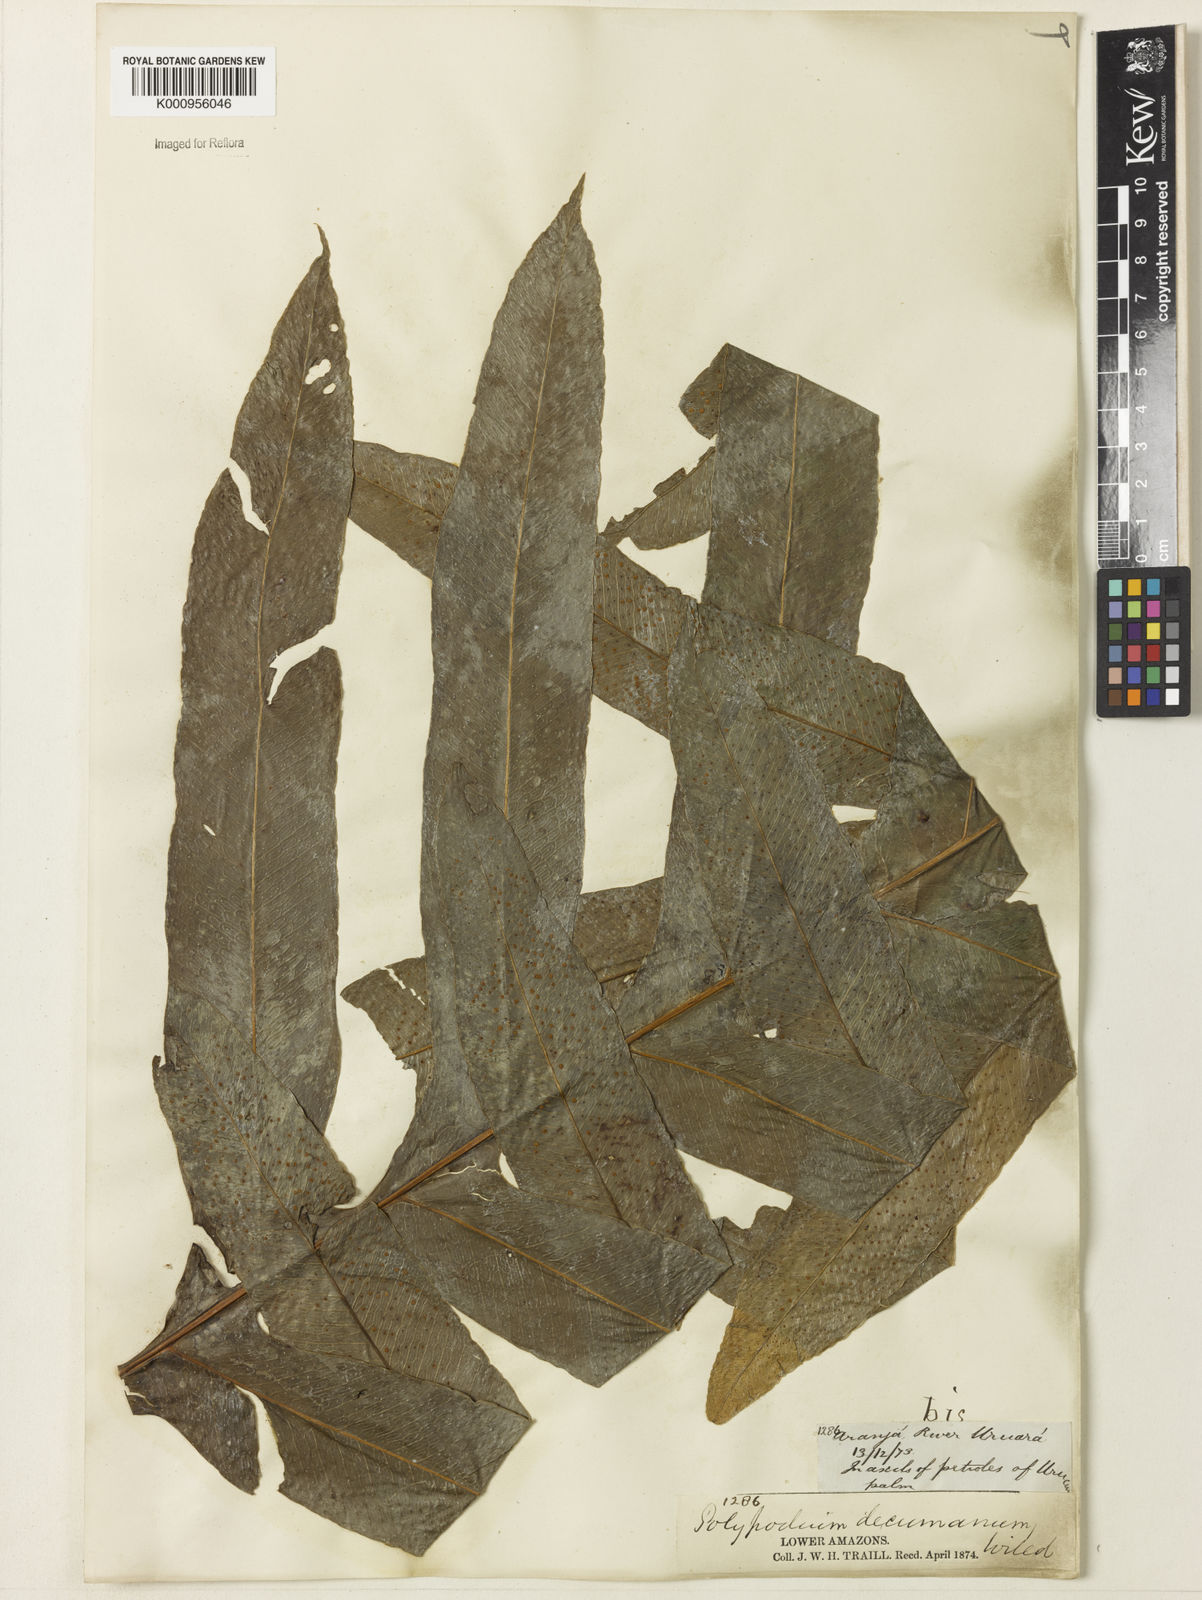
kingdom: Plantae
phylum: Tracheophyta
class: Polypodiopsida
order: Polypodiales
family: Polypodiaceae
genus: Phlebodium
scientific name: Phlebodium decumanum
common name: Golden polypod
